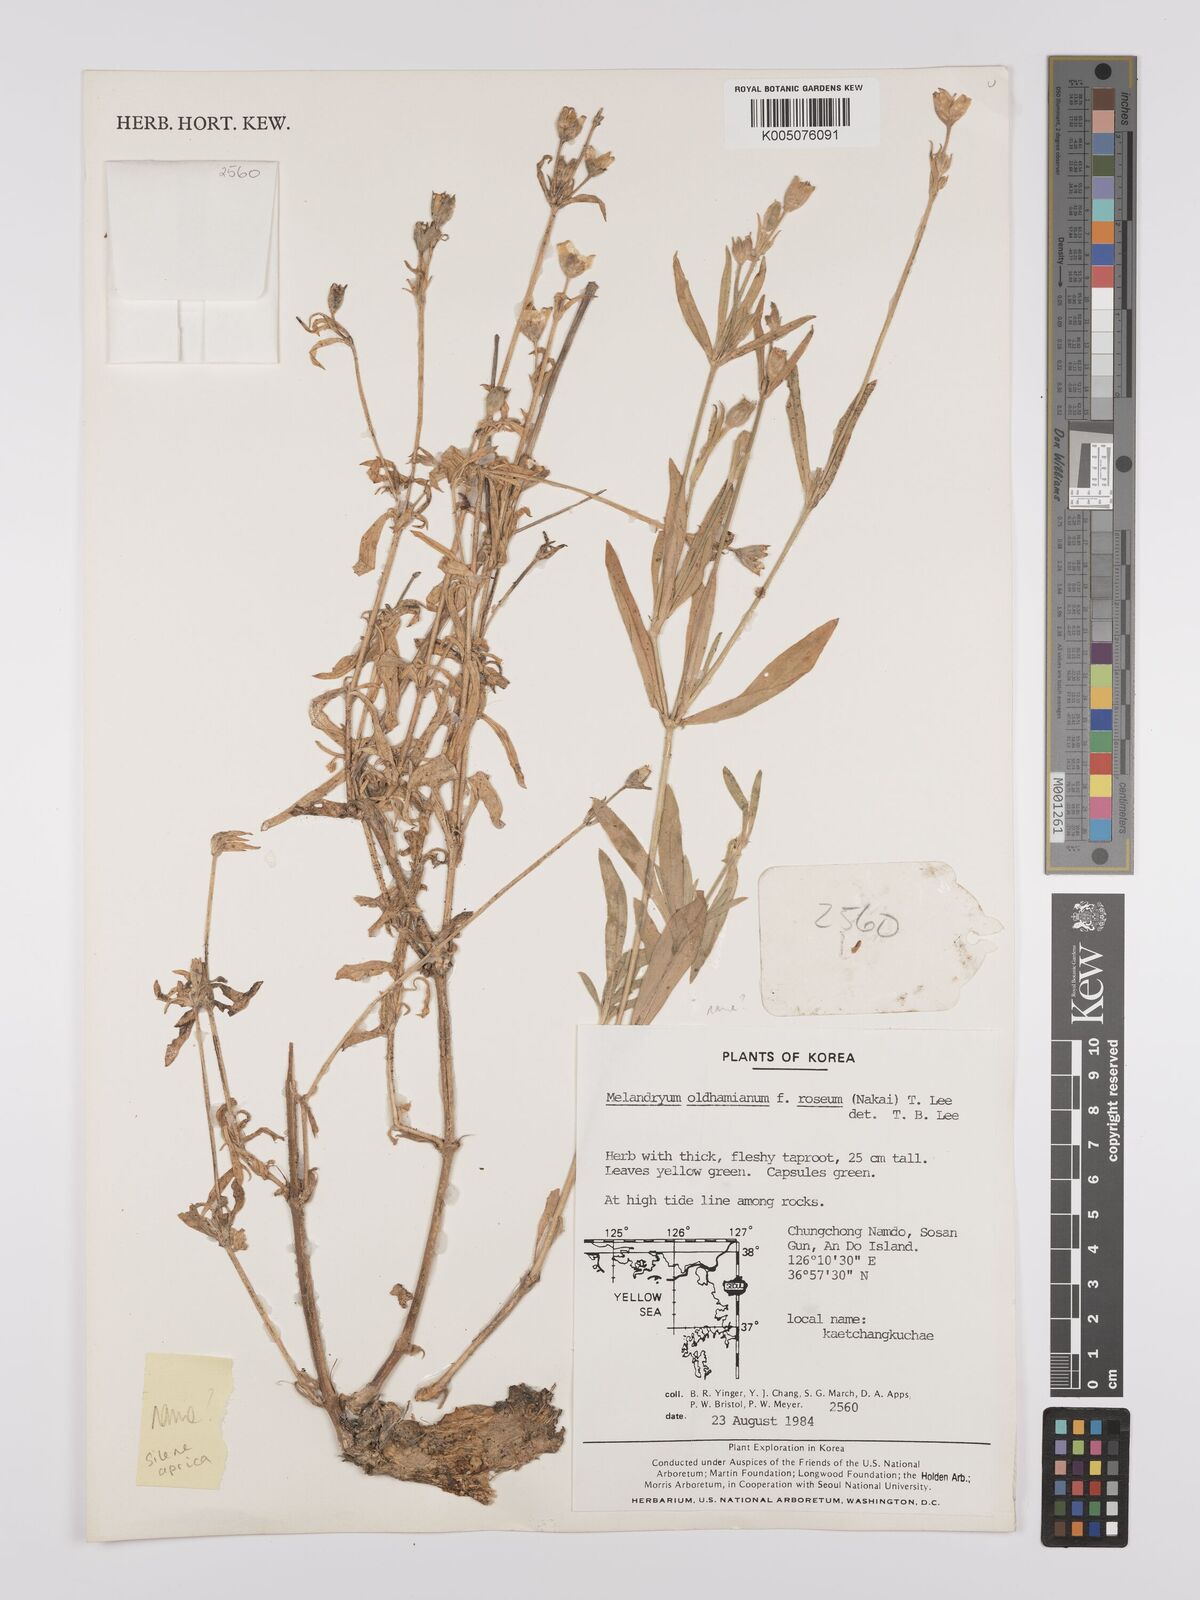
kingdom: Plantae
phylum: Tracheophyta
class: Magnoliopsida
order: Caryophyllales
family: Caryophyllaceae
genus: Silene
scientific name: Silene aprica
